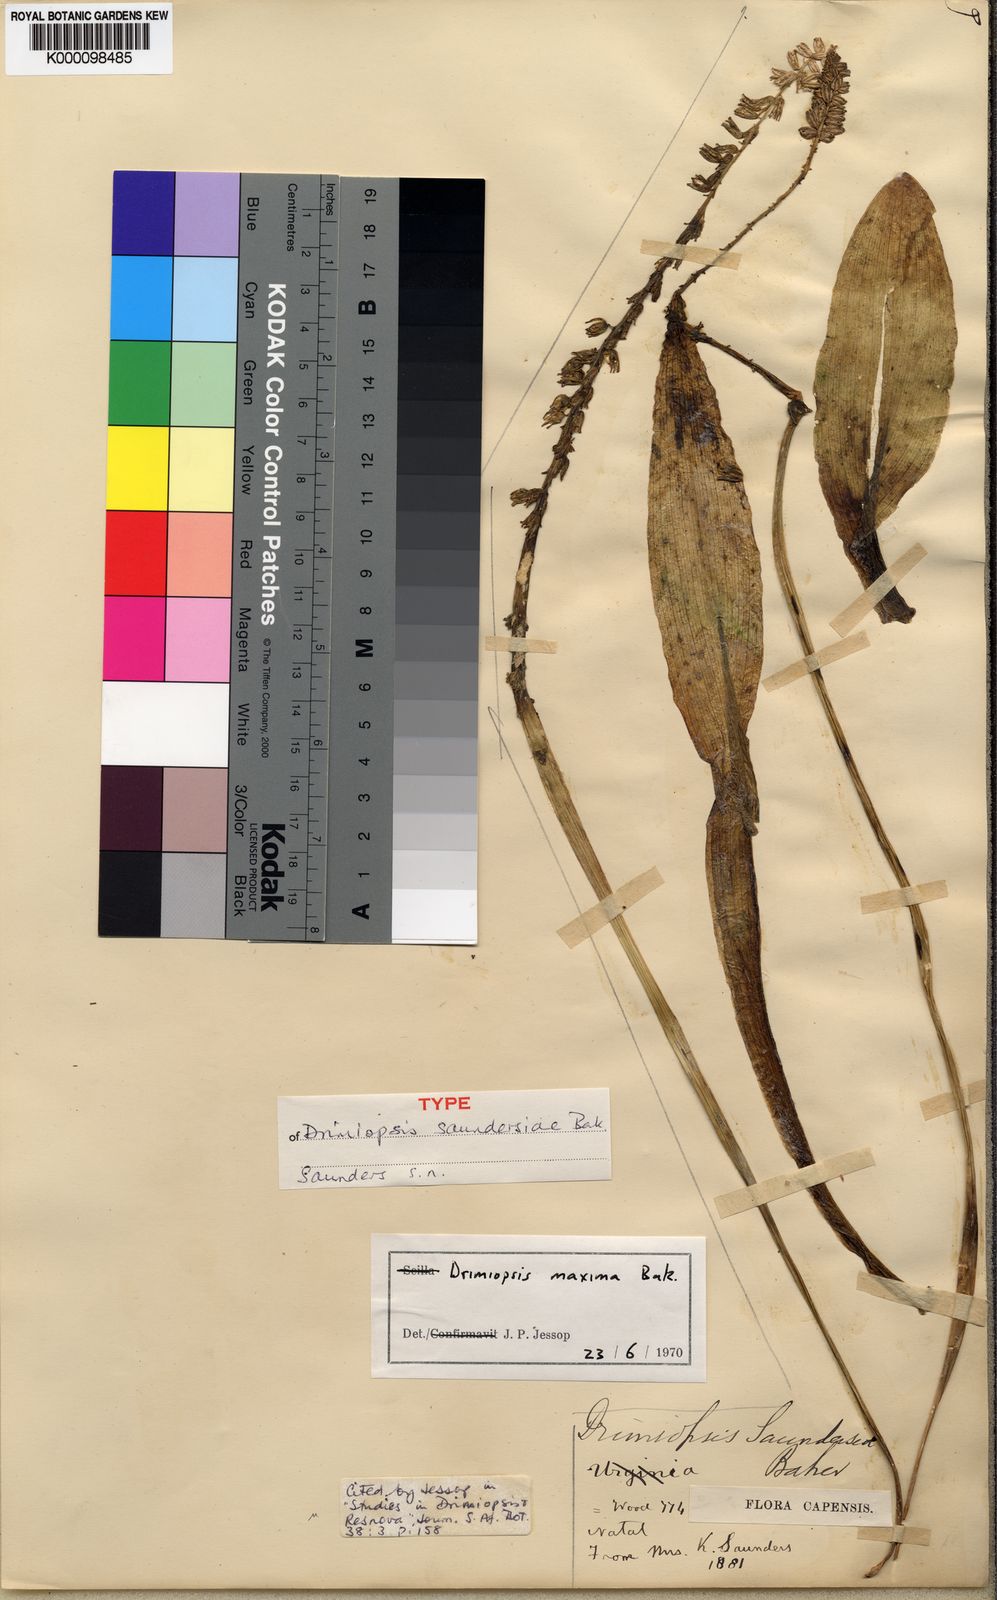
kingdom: Plantae
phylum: Tracheophyta
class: Liliopsida
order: Asparagales
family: Asparagaceae
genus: Resnova
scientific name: Resnova humifusa
